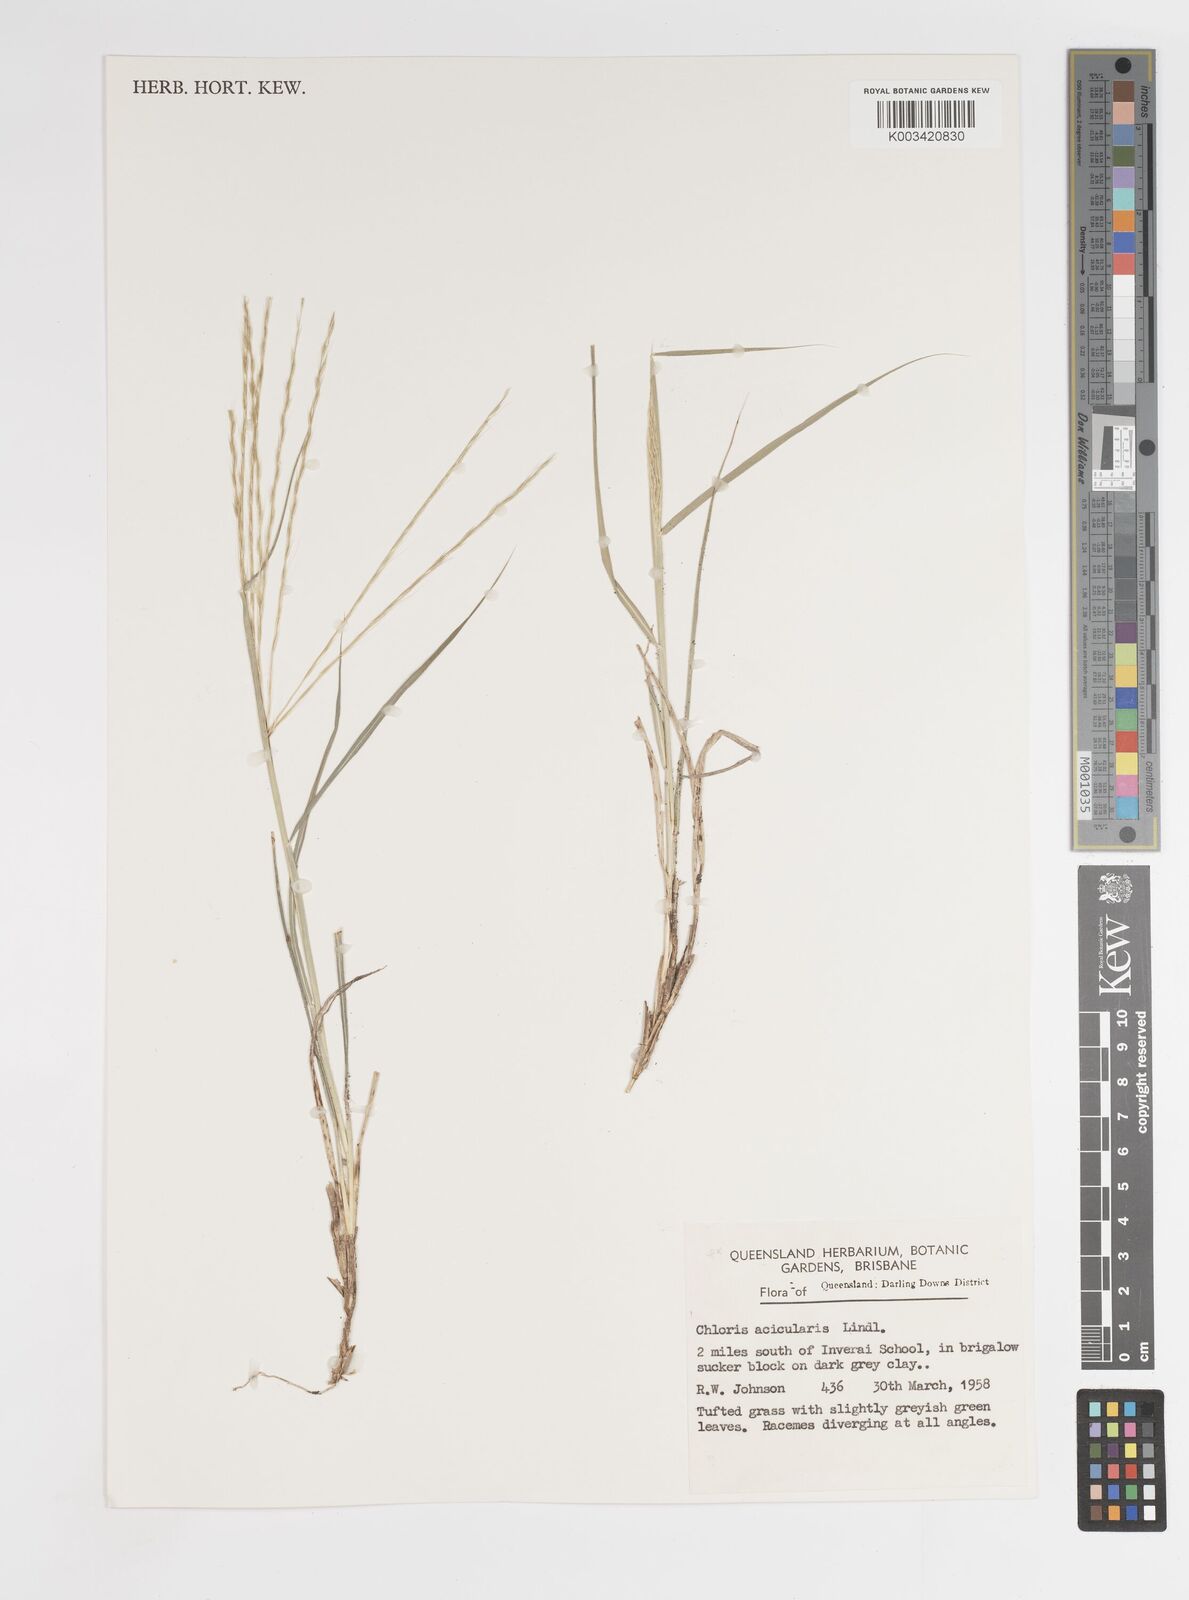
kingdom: Plantae
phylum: Tracheophyta
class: Liliopsida
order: Poales
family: Poaceae
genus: Enteropogon
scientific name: Enteropogon acicularis
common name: Curly windmill grass
